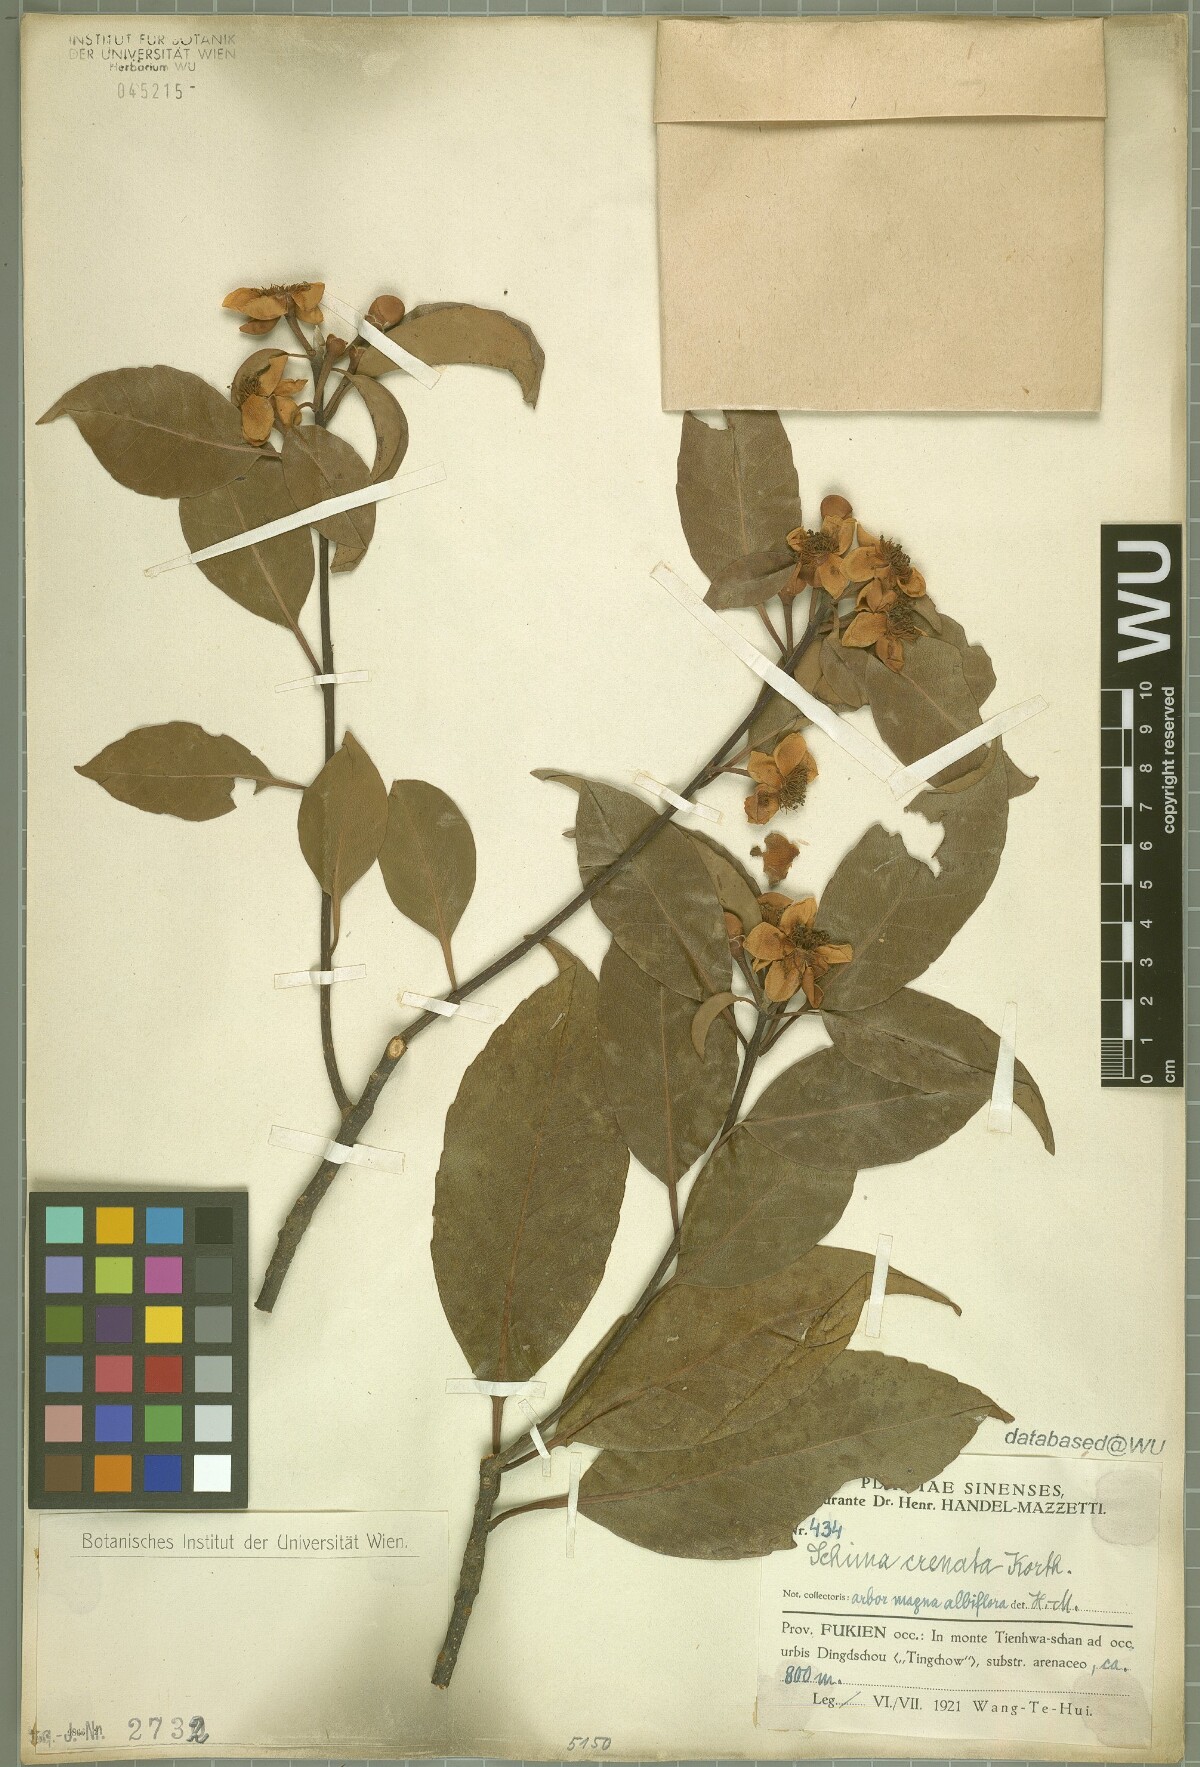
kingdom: Plantae
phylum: Tracheophyta
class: Magnoliopsida
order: Ericales
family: Theaceae
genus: Schima
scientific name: Schima wallichii
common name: Schima
